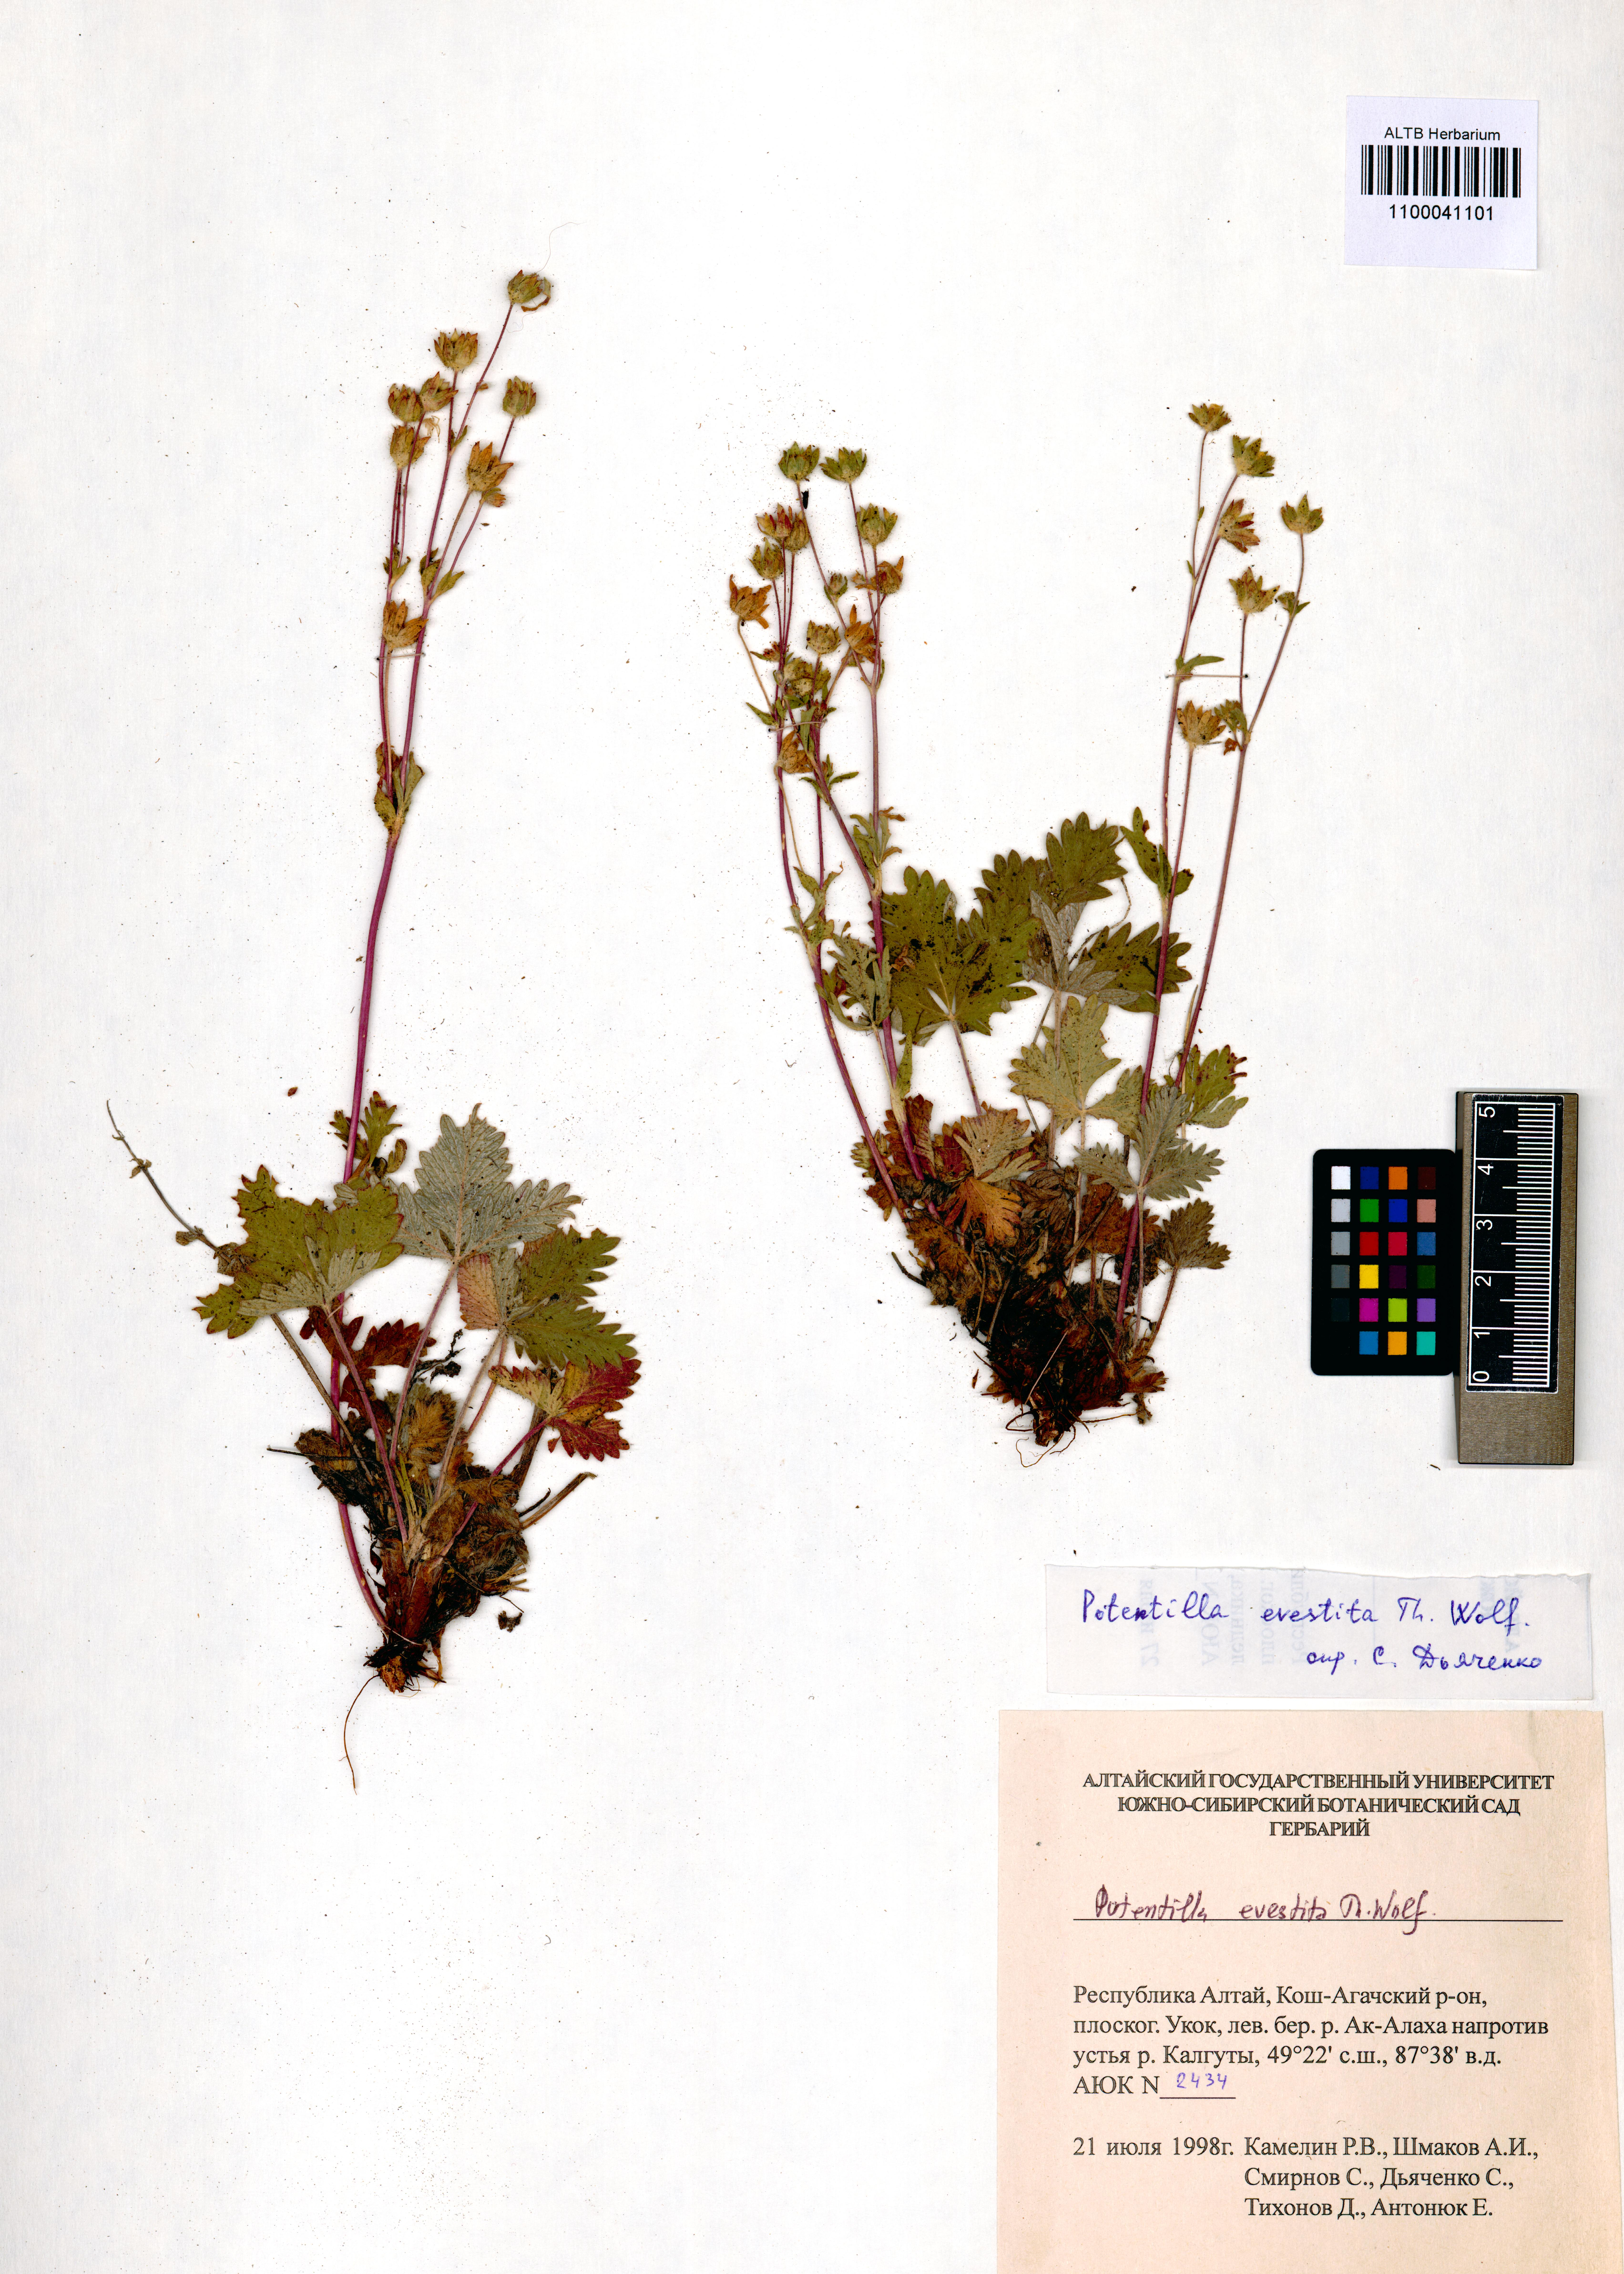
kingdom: Plantae
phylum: Tracheophyta
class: Magnoliopsida
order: Rosales
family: Rosaceae
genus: Potentilla
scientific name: Potentilla evestita
